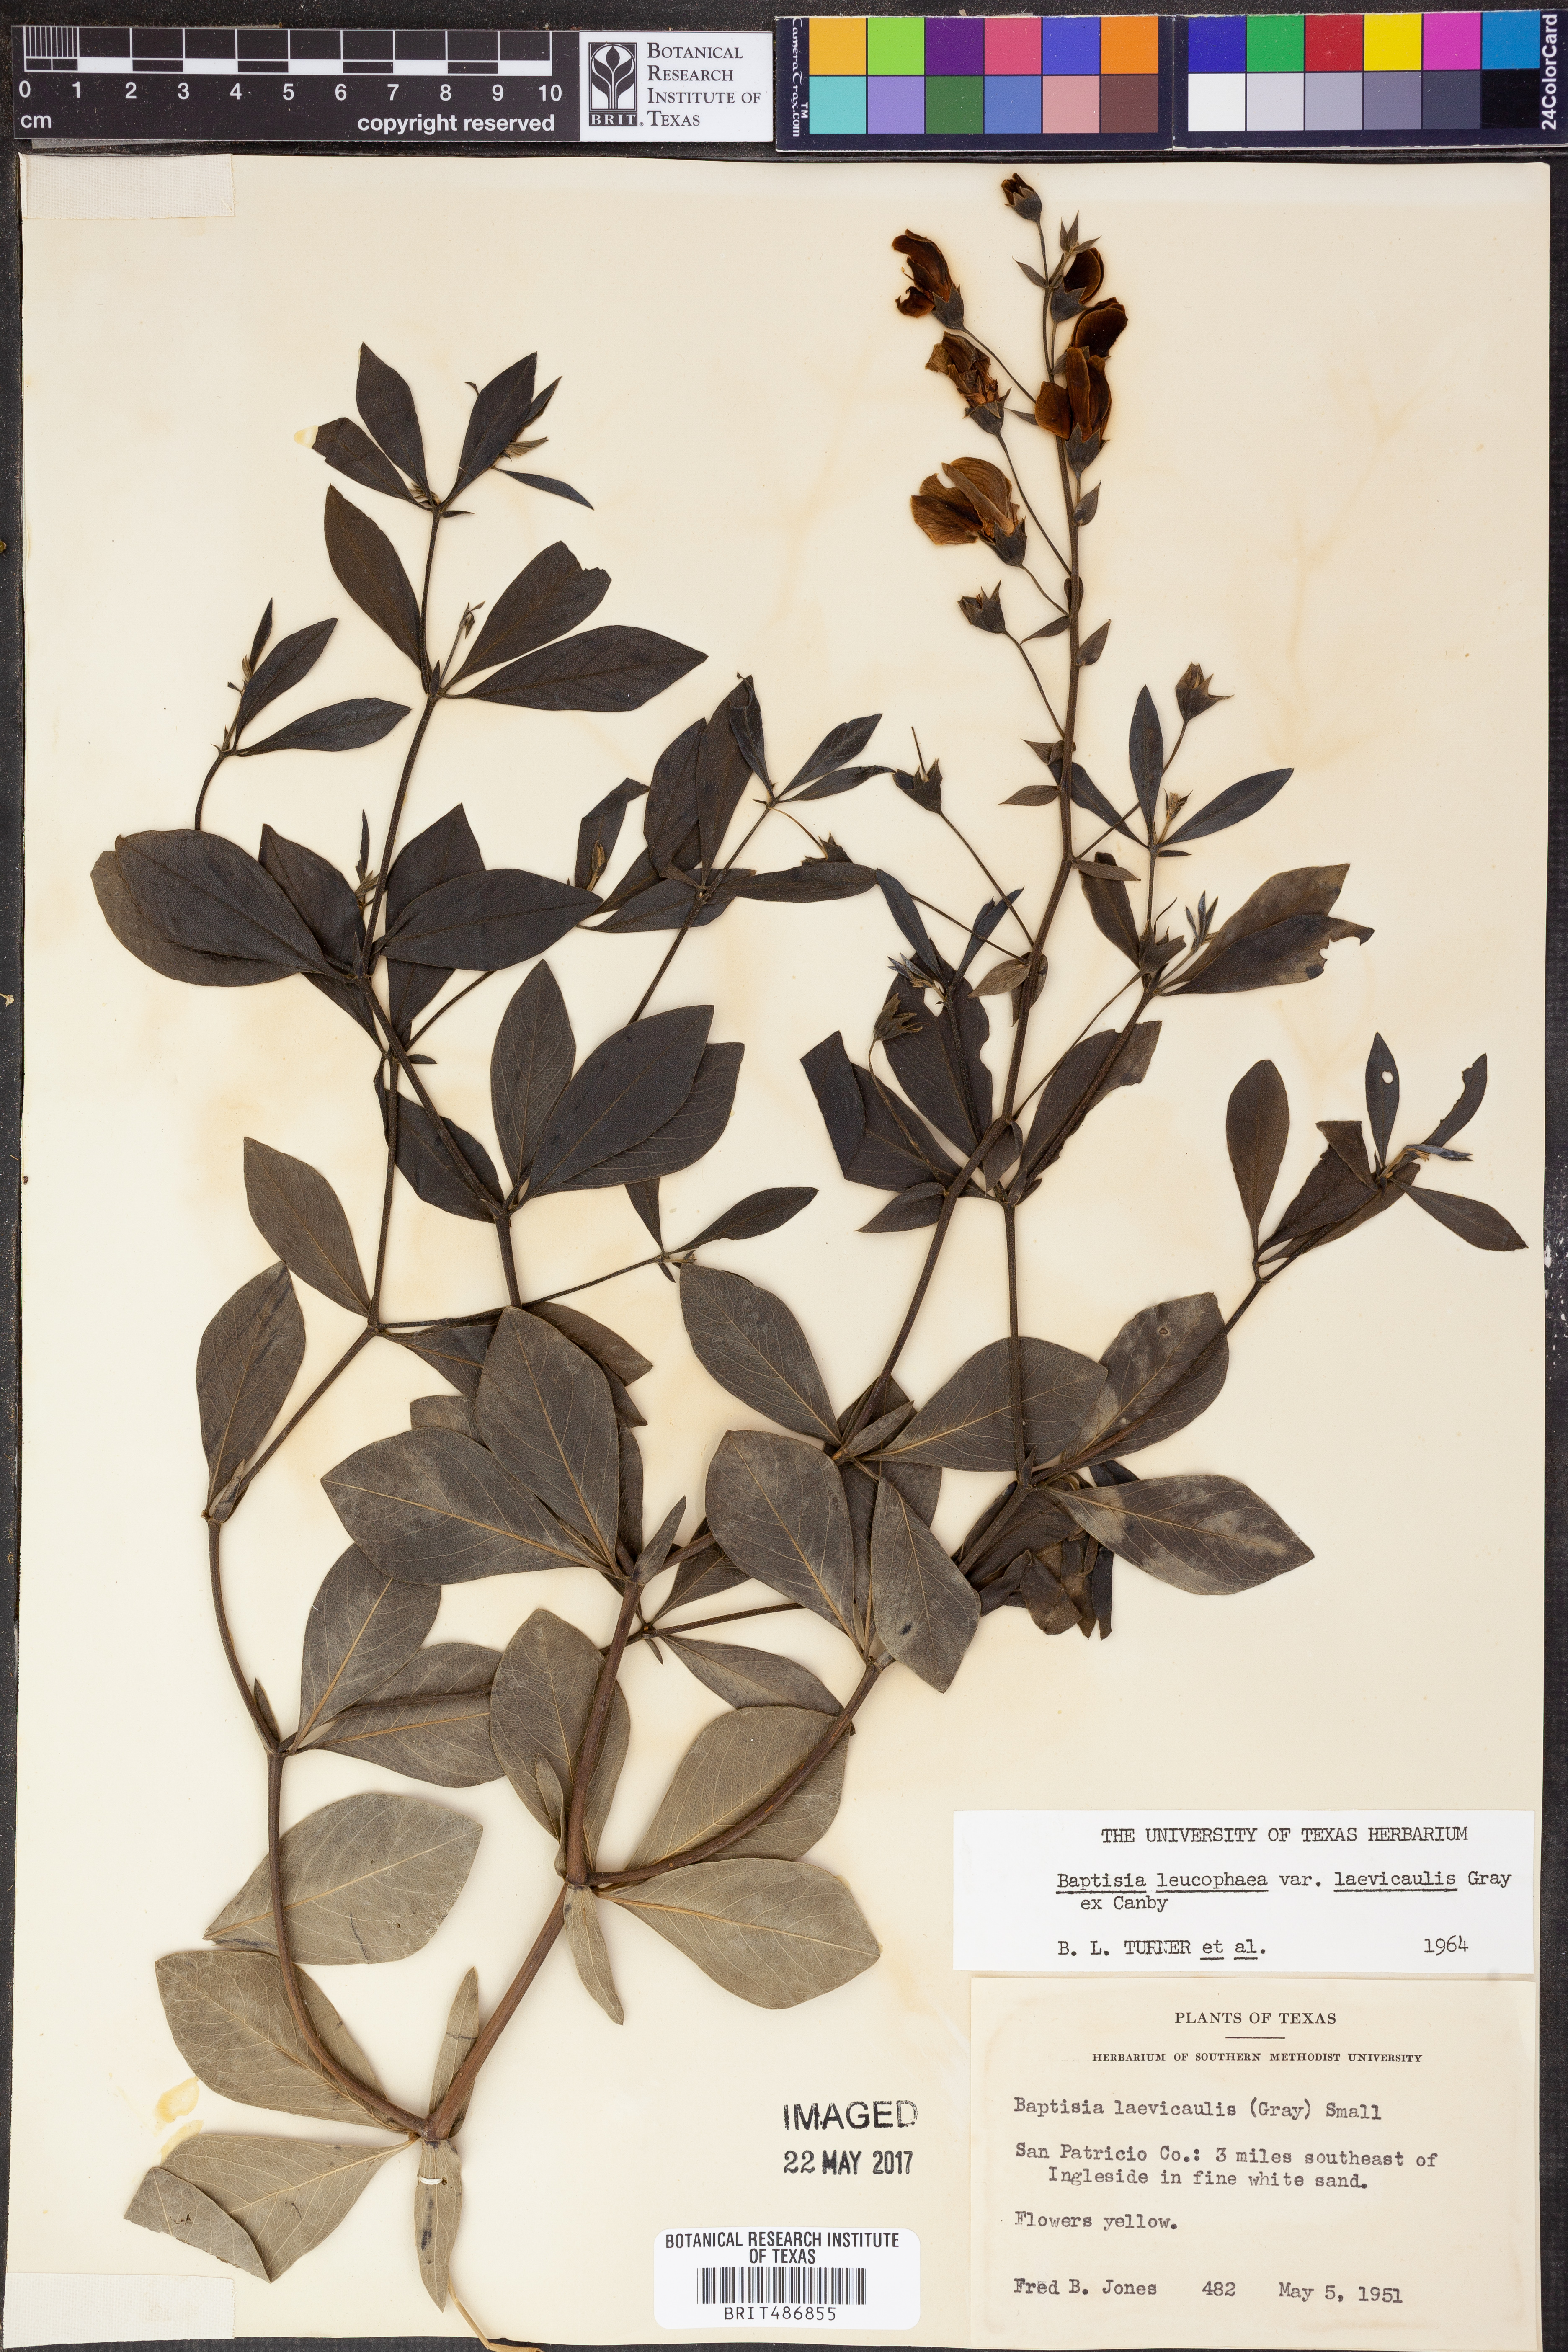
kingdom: Plantae
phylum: Tracheophyta
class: Magnoliopsida
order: Fabales
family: Fabaceae
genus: Baptisia
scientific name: Baptisia bracteata
